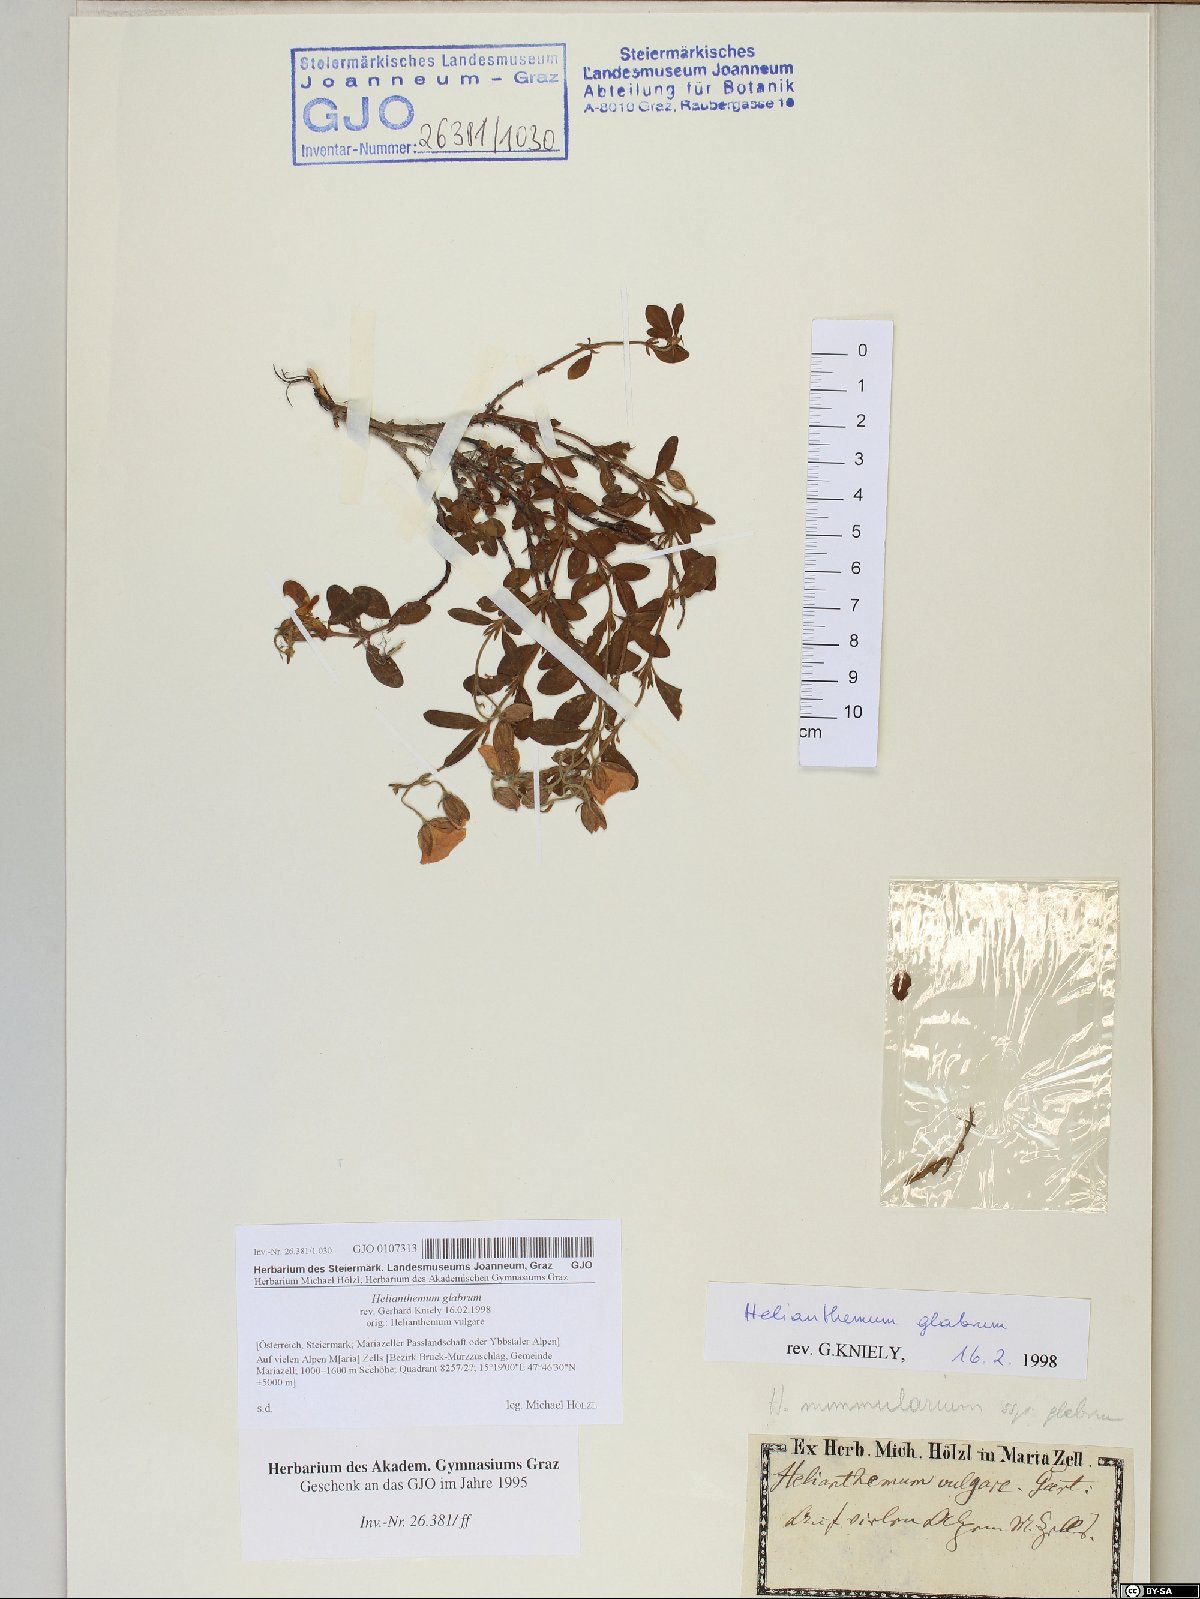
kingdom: Plantae
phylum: Tracheophyta
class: Magnoliopsida
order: Malvales
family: Cistaceae
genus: Helianthemum
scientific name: Helianthemum nummularium
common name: Common rock-rose
